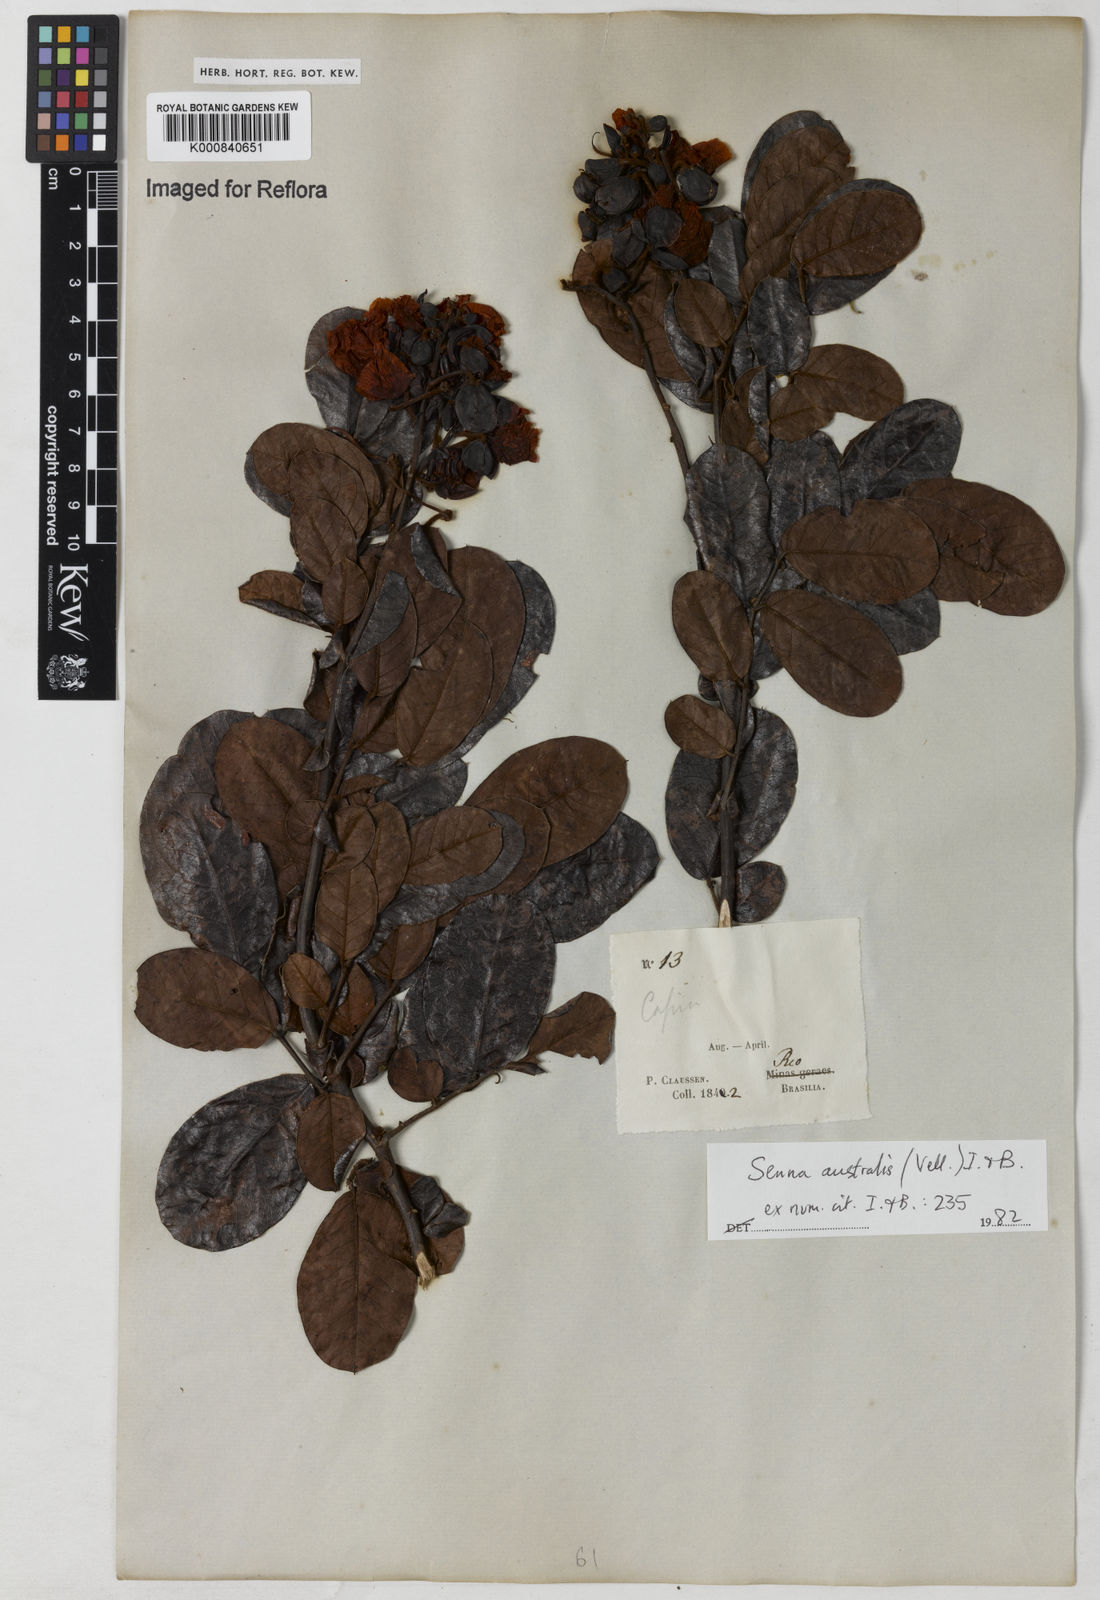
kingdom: Plantae
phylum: Tracheophyta
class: Magnoliopsida
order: Fabales
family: Fabaceae
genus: Senna
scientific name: Senna appendiculata
